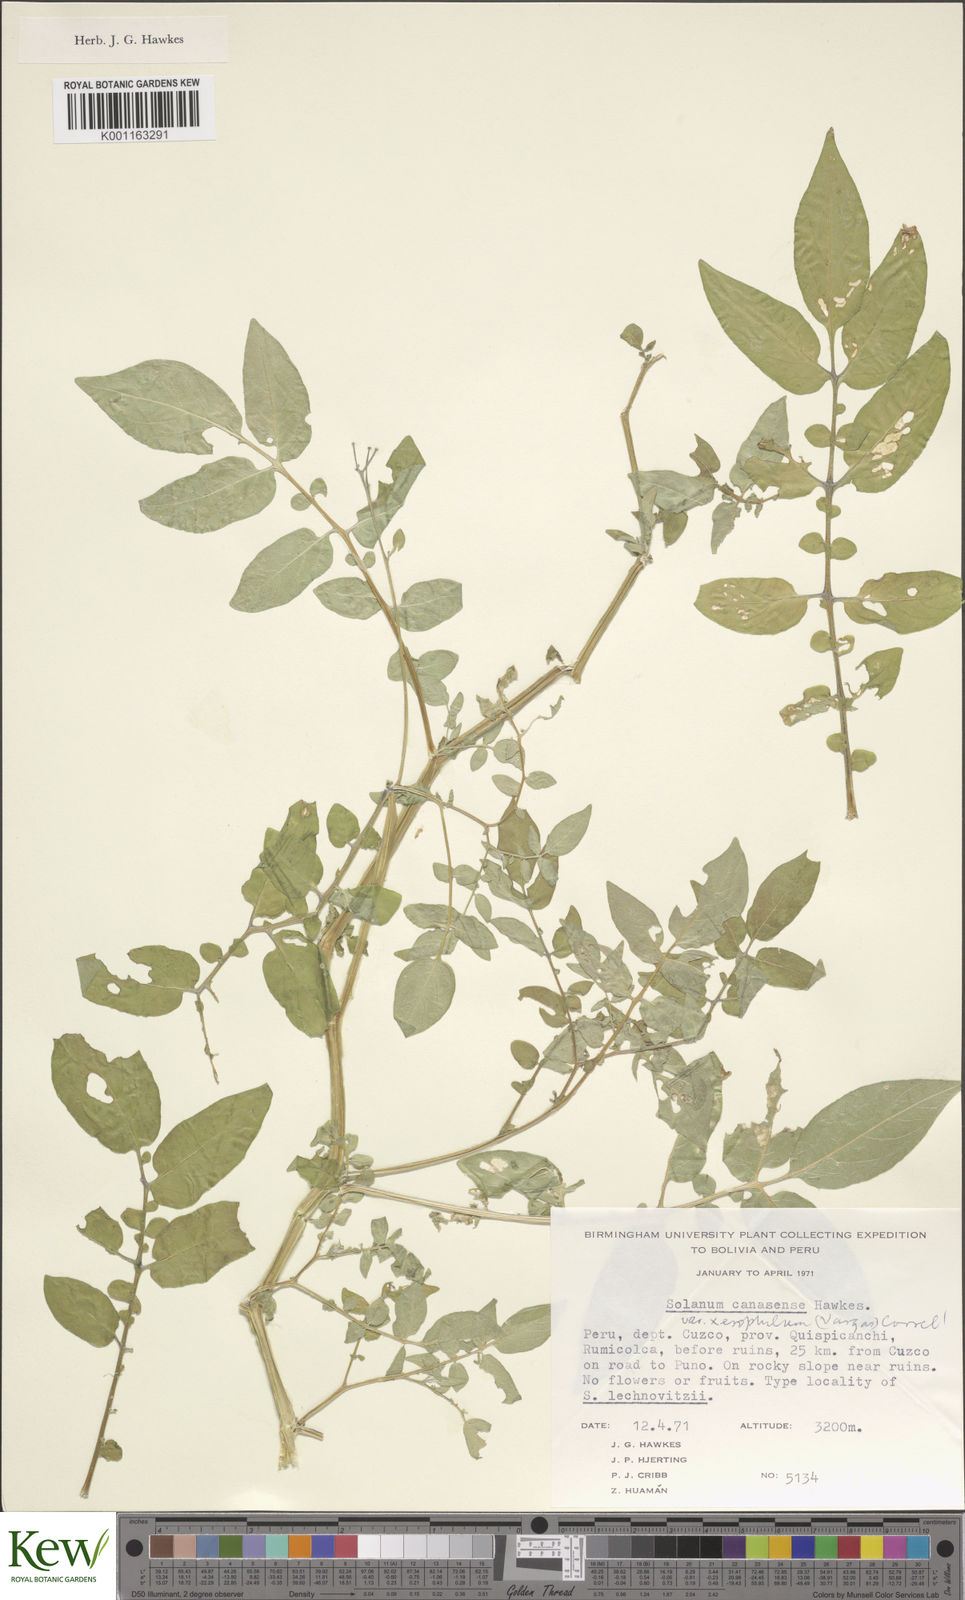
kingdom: Plantae
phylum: Tracheophyta
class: Magnoliopsida
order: Solanales
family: Solanaceae
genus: Solanum
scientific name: Solanum candolleanum
